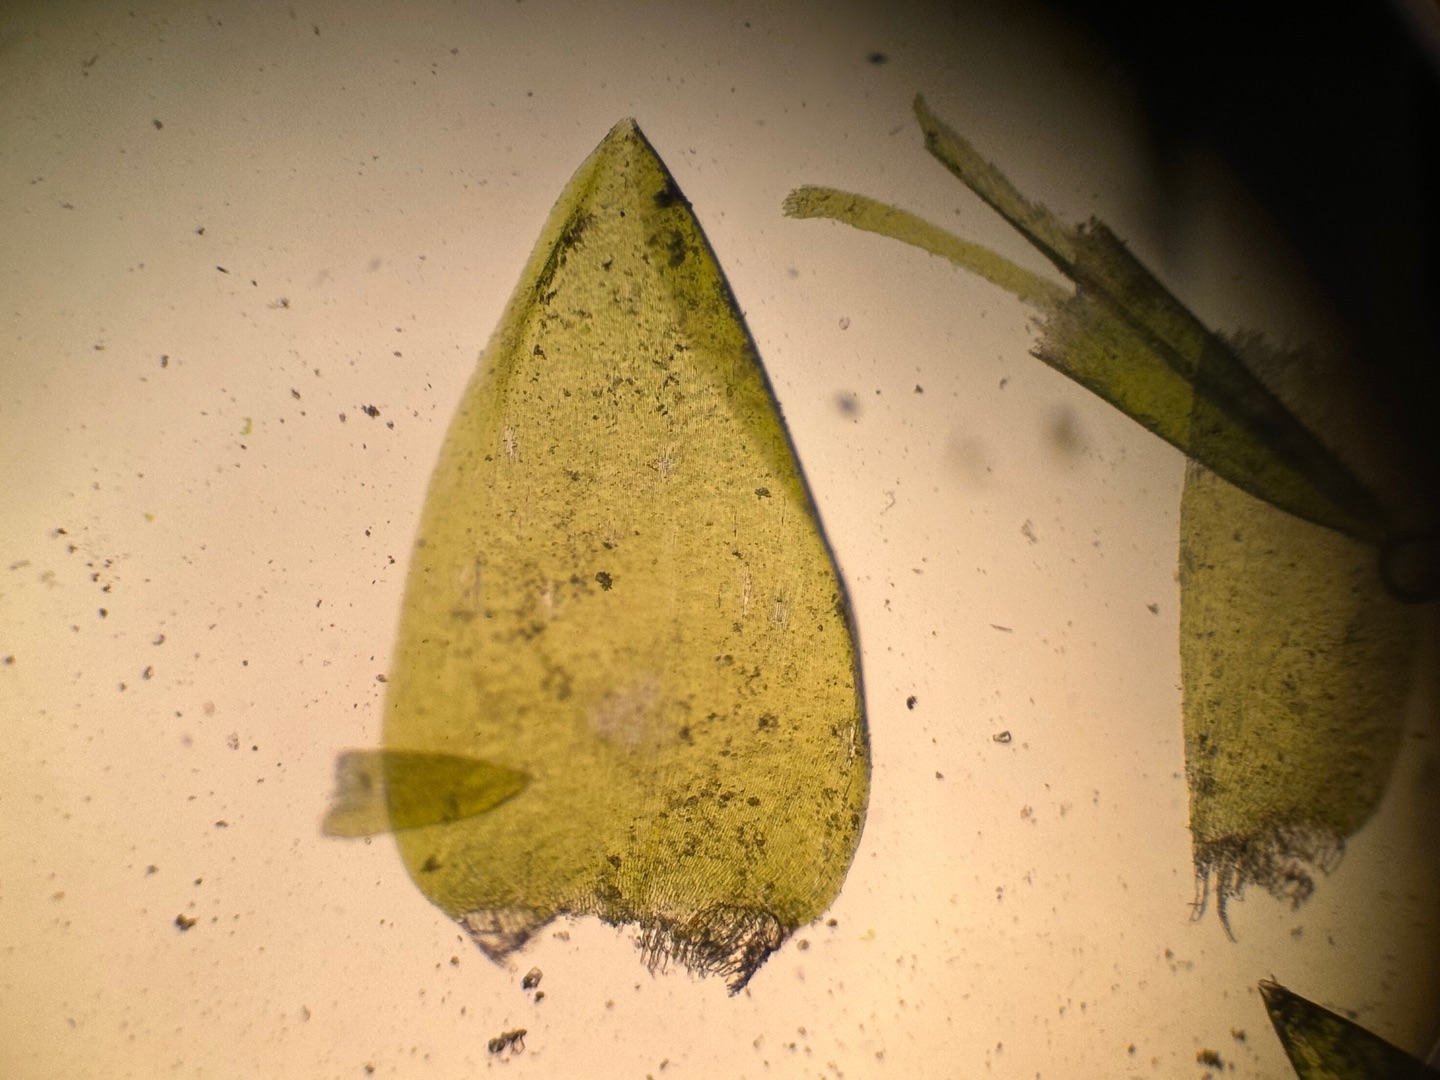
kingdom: Plantae
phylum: Bryophyta
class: Bryopsida
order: Hypnales
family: Pylaisiaceae
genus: Calliergonella
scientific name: Calliergonella cuspidata
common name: Spids spydmos
